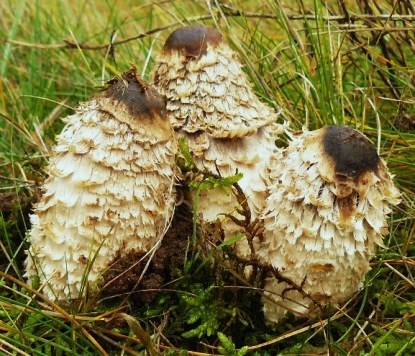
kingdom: Fungi
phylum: Basidiomycota
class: Agaricomycetes
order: Agaricales
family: Agaricaceae
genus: Coprinus
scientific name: Coprinus comatus
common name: stor parykhat
